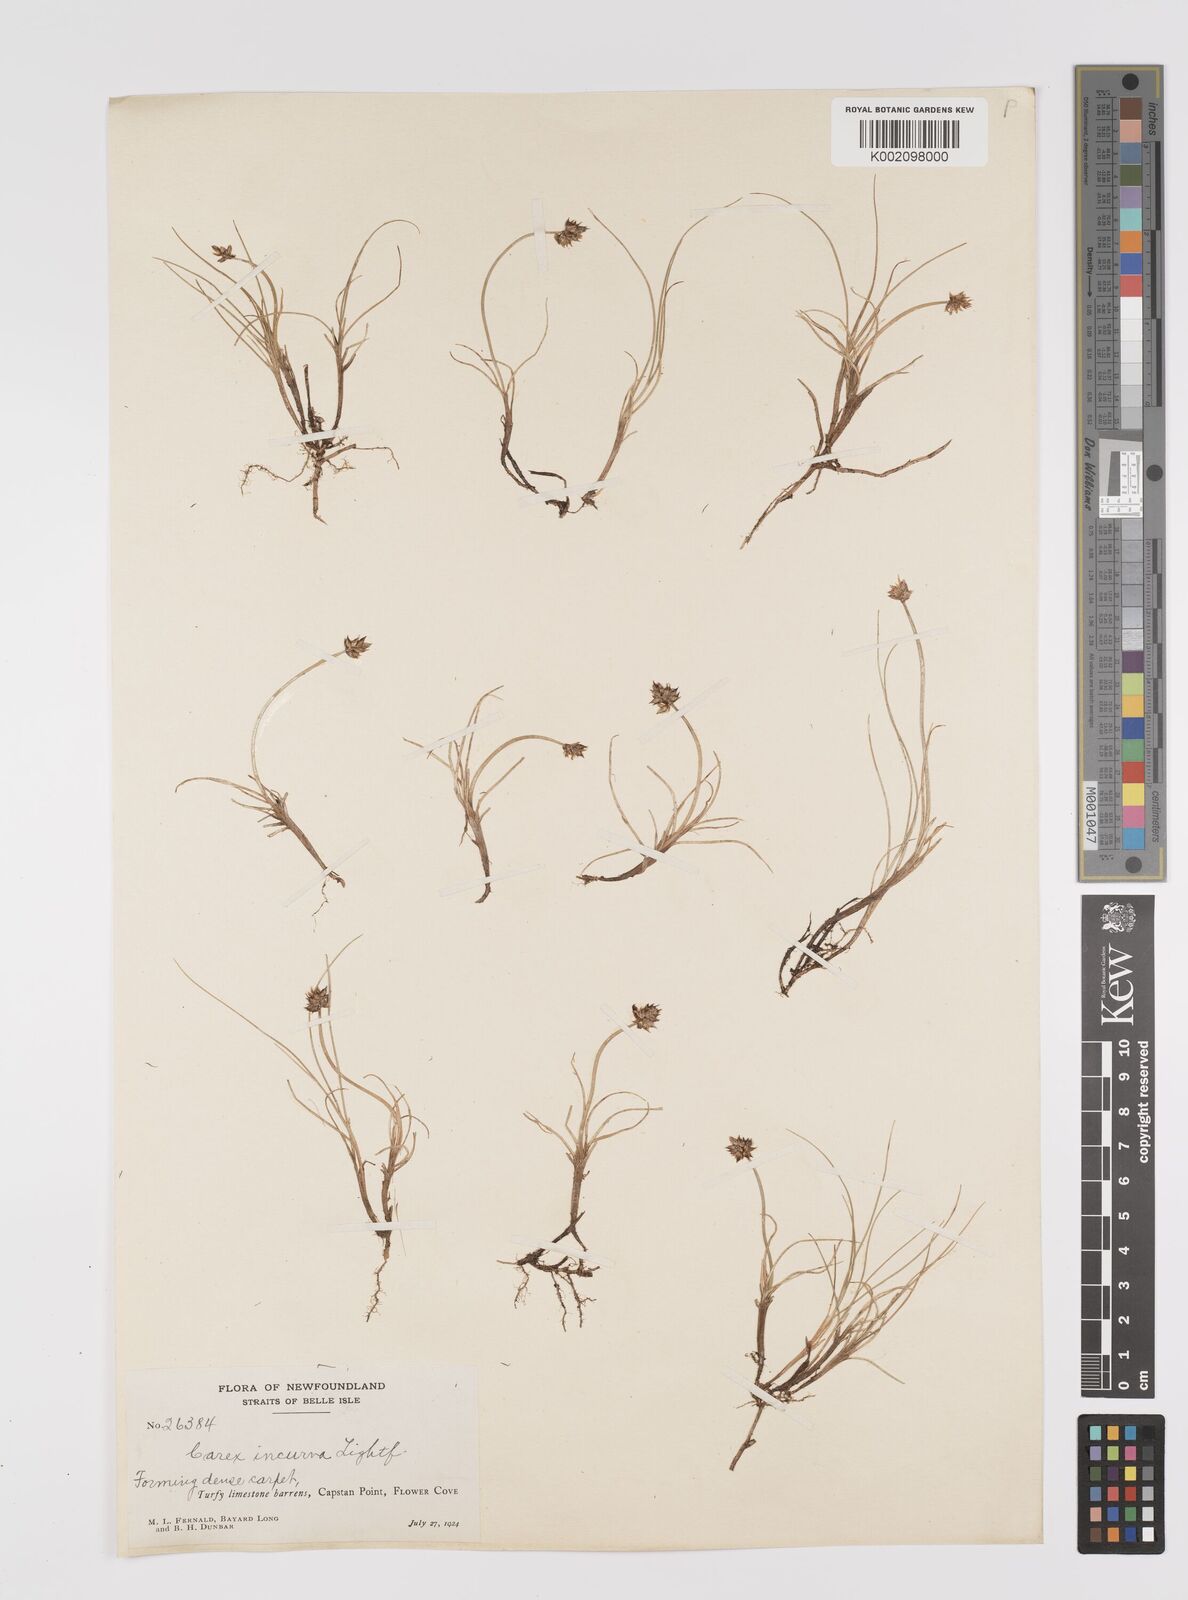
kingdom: Plantae
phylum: Tracheophyta
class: Liliopsida
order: Poales
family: Cyperaceae
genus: Carex
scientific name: Carex maritima
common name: Curved sedge
